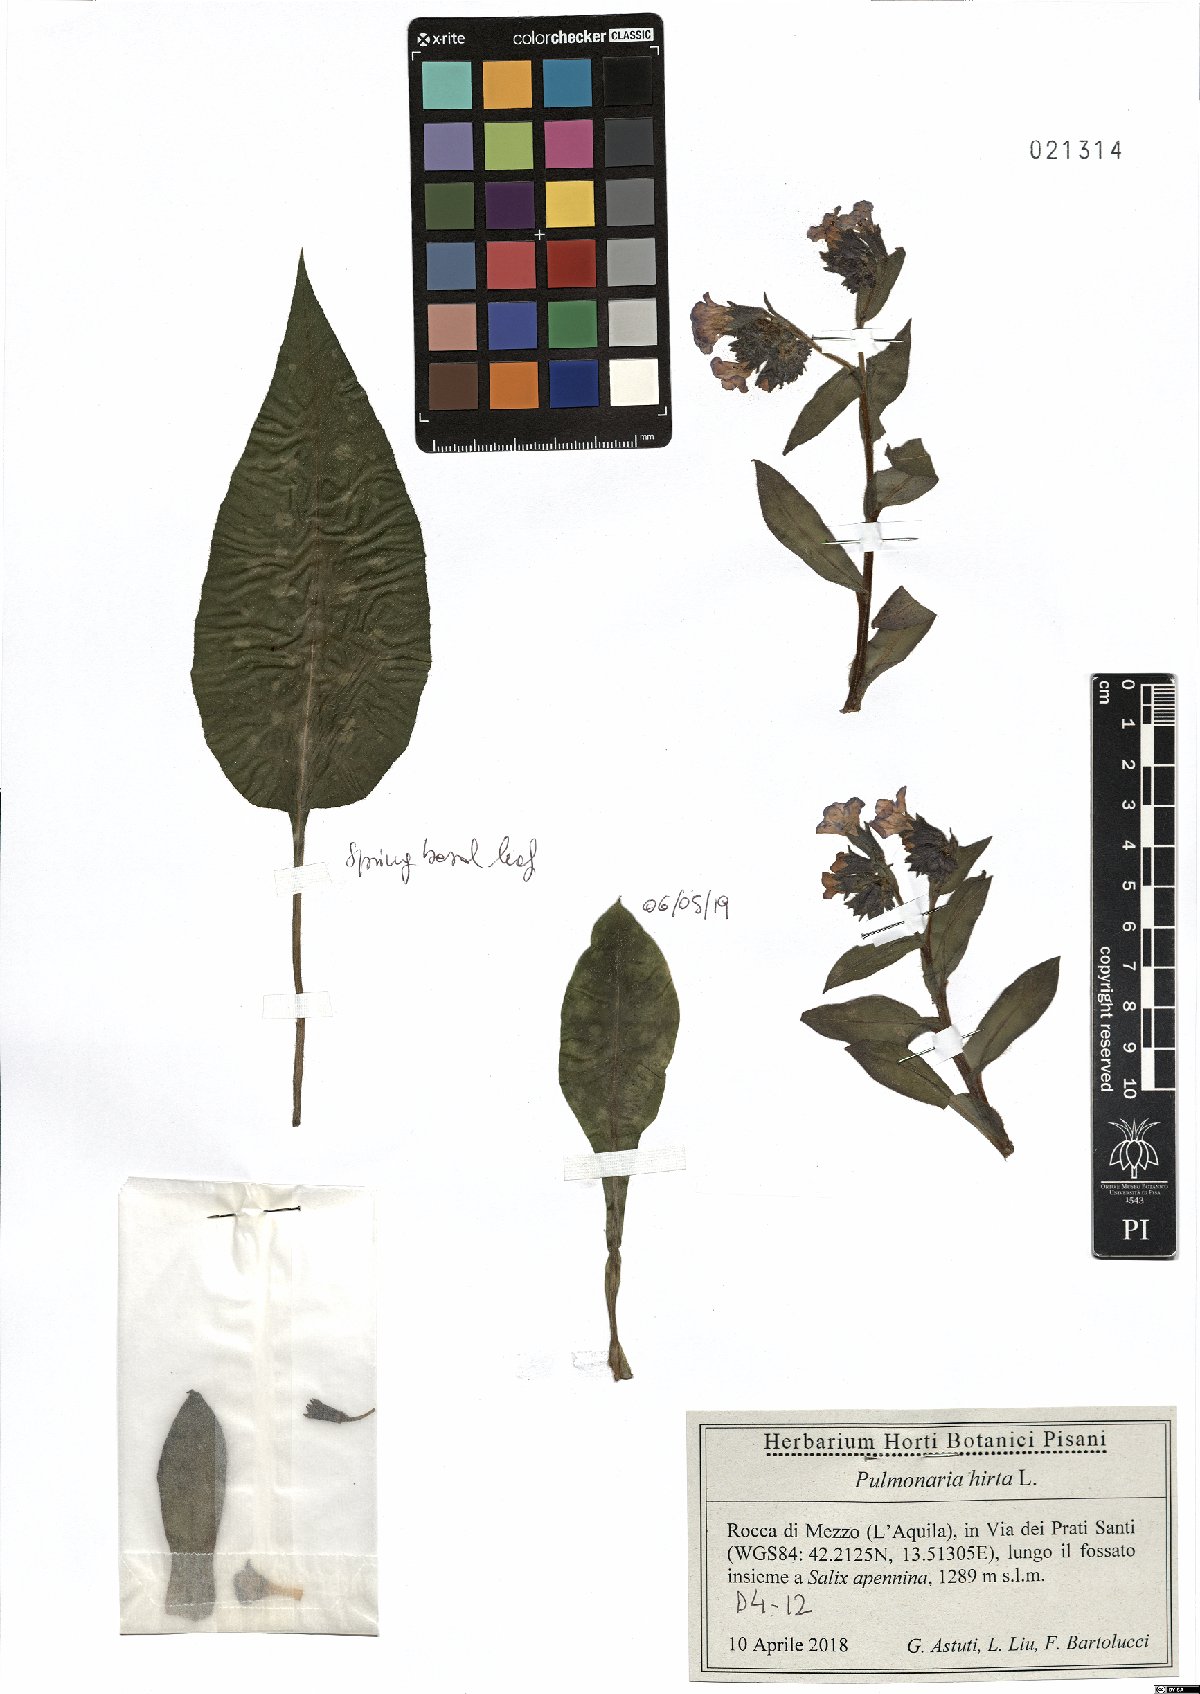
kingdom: Plantae
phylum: Tracheophyta
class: Magnoliopsida
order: Boraginales
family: Boraginaceae
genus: Pulmonaria
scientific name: Pulmonaria hirta
